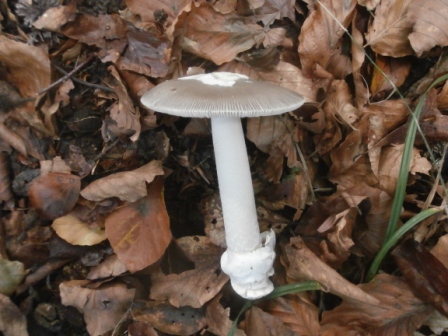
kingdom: Fungi
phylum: Basidiomycota
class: Agaricomycetes
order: Agaricales
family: Amanitaceae
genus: Amanita
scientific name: Amanita vaginata
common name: grå kam-fluesvamp
